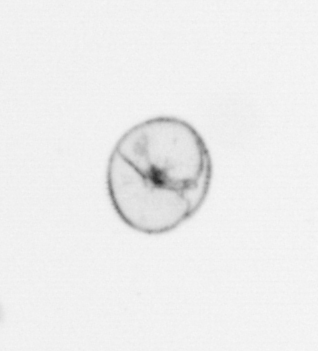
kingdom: Chromista
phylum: Myzozoa
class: Dinophyceae
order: Noctilucales
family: Noctilucaceae
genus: Noctiluca
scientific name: Noctiluca scintillans
